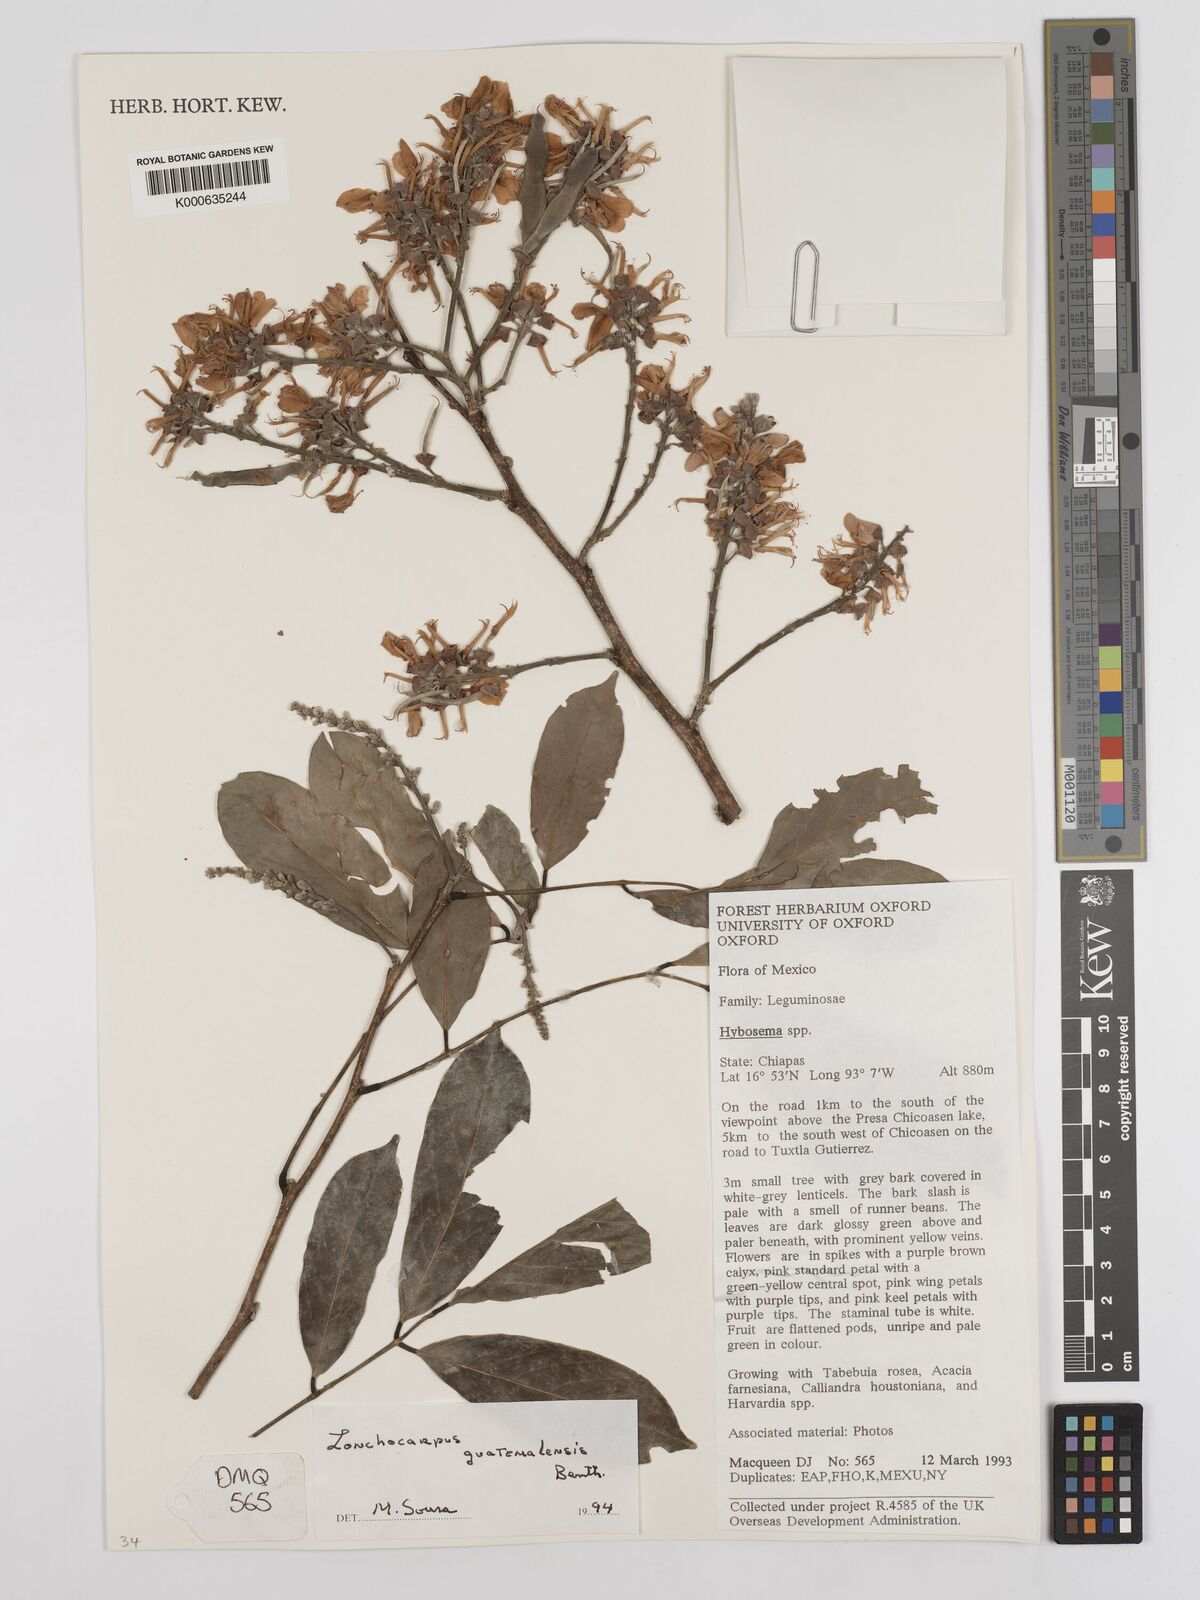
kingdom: Plantae
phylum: Tracheophyta
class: Magnoliopsida
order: Fabales
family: Fabaceae
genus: Lonchocarpus
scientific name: Lonchocarpus guatemalensis
